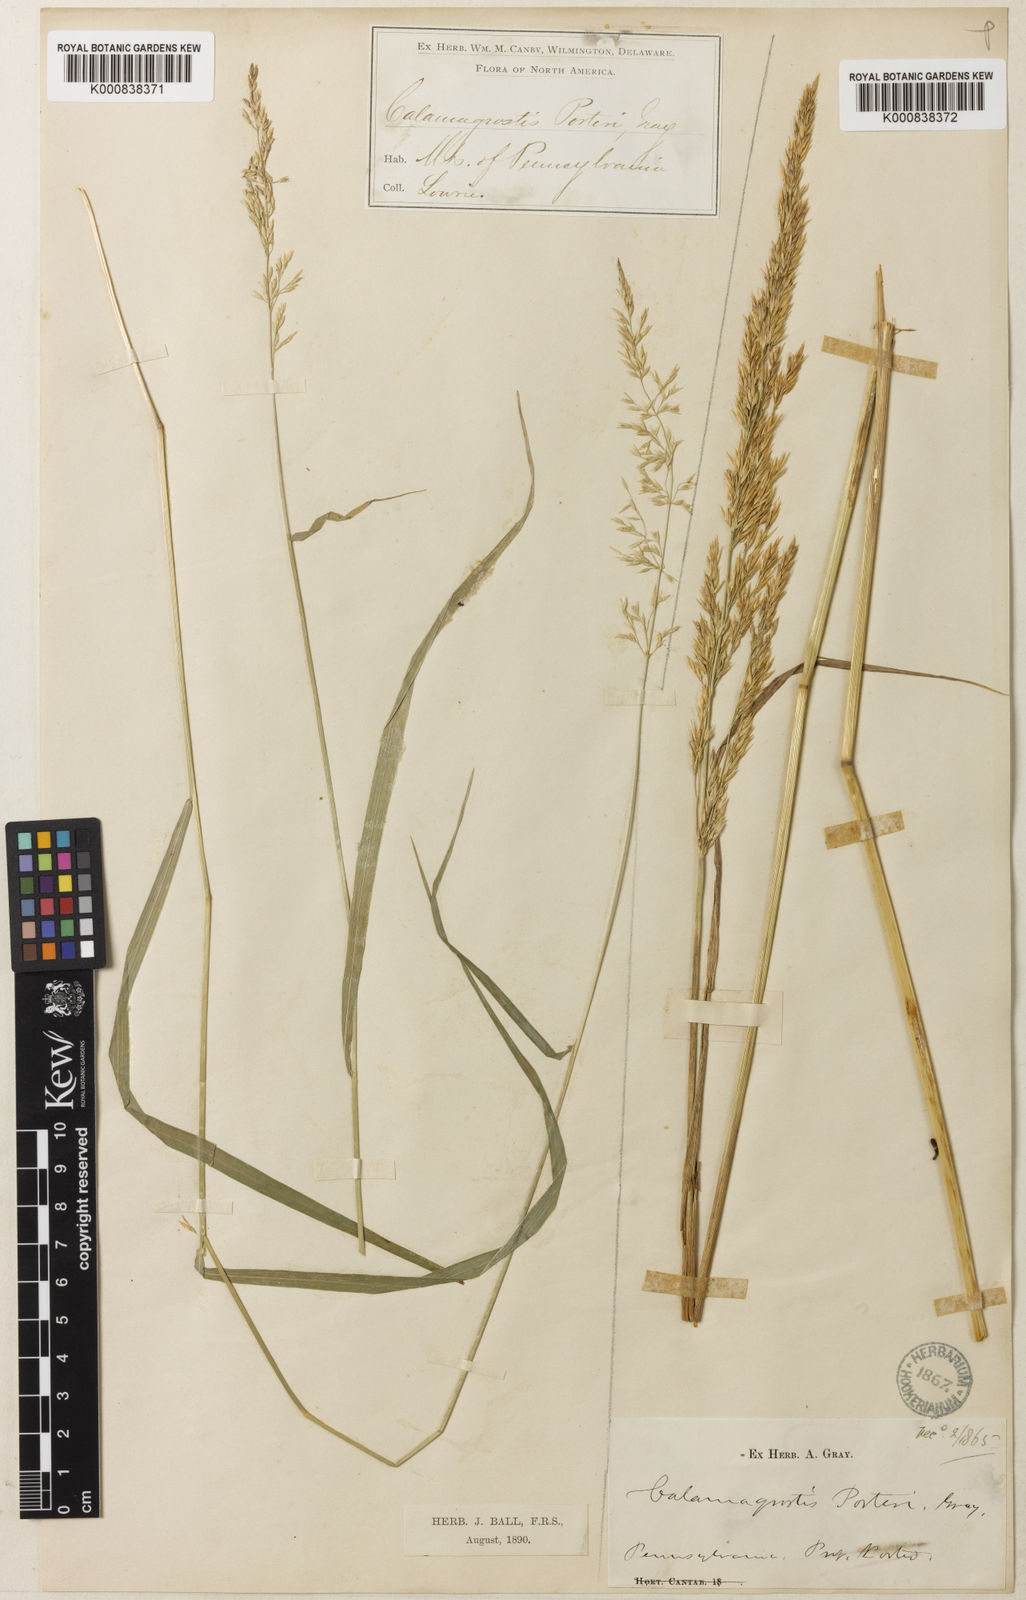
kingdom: Plantae
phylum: Tracheophyta
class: Liliopsida
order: Poales
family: Poaceae
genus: Calamagrostis
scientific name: Calamagrostis porteri
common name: Porter's reed grass
